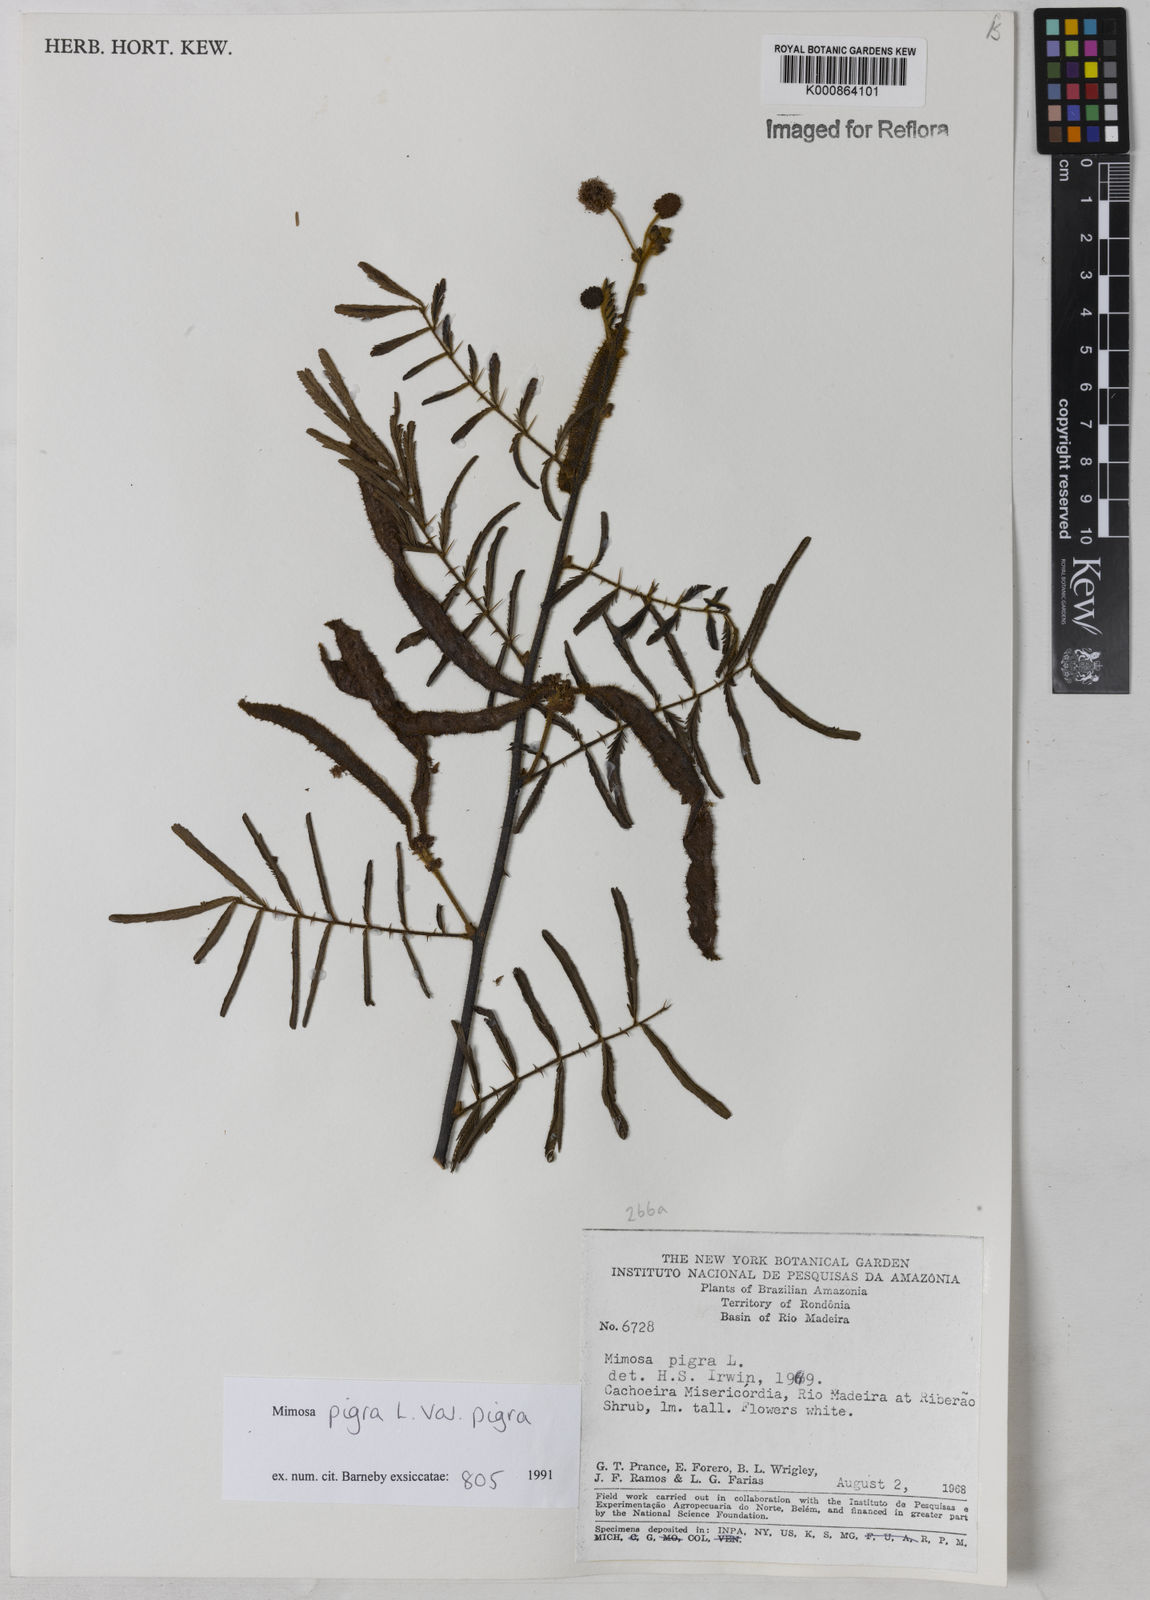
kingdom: Plantae
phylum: Tracheophyta
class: Magnoliopsida
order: Fabales
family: Fabaceae
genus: Mimosa
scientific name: Mimosa pigra
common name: Black mimosa
